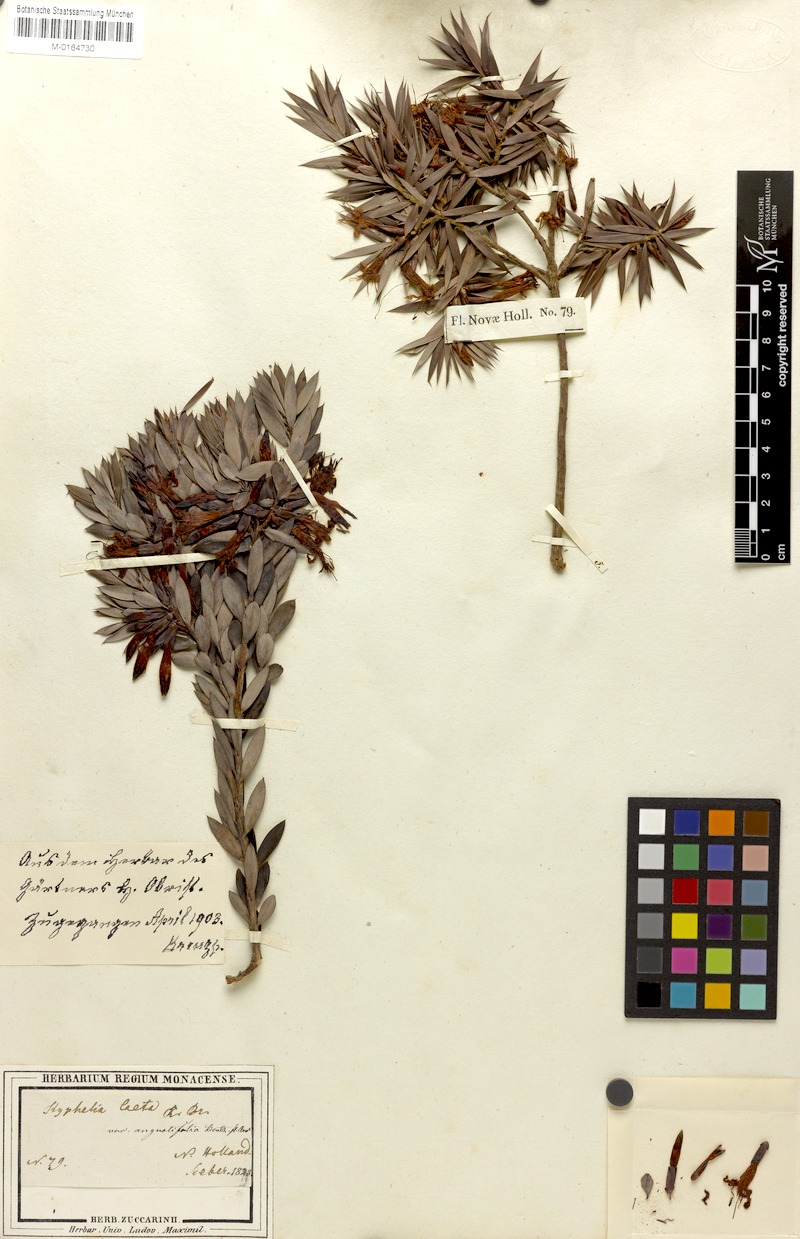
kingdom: Plantae
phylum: Tracheophyta
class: Magnoliopsida
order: Ericales
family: Ericaceae
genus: Styphelia
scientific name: Styphelia laeta
